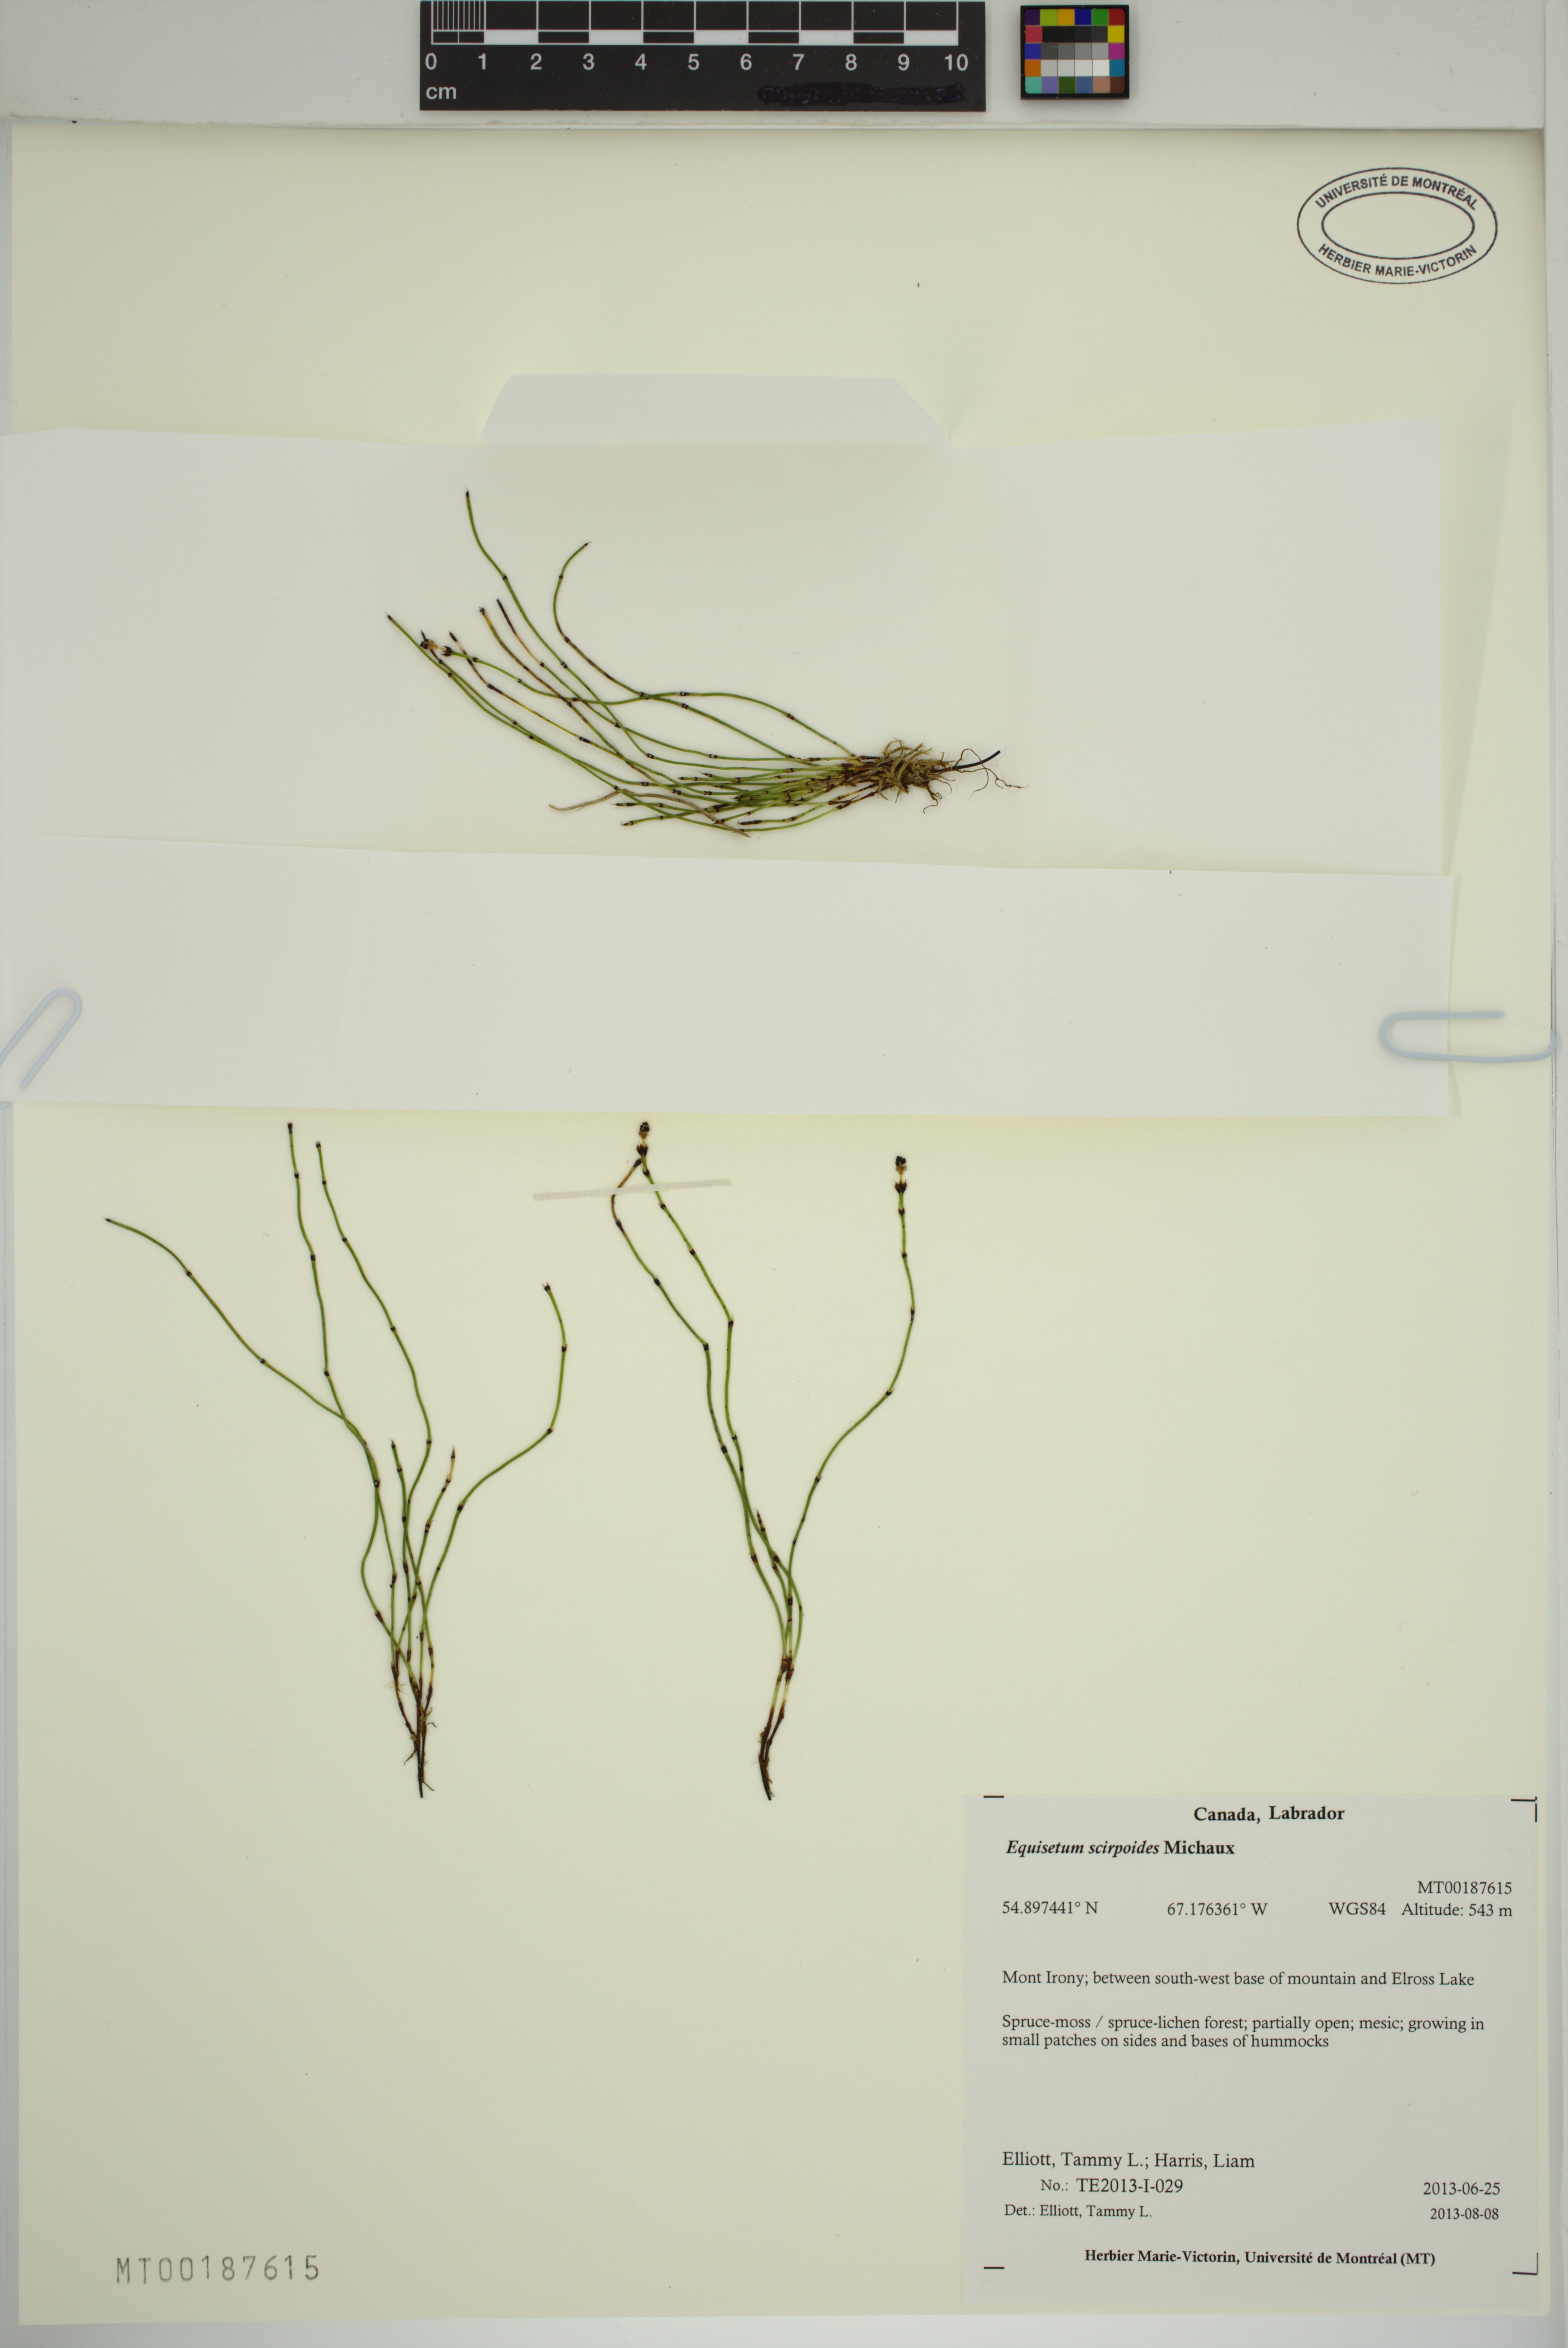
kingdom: Plantae
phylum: Tracheophyta
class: Polypodiopsida
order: Equisetales
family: Equisetaceae
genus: Equisetum
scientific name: Equisetum scirpoides
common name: Delicate horsetail
